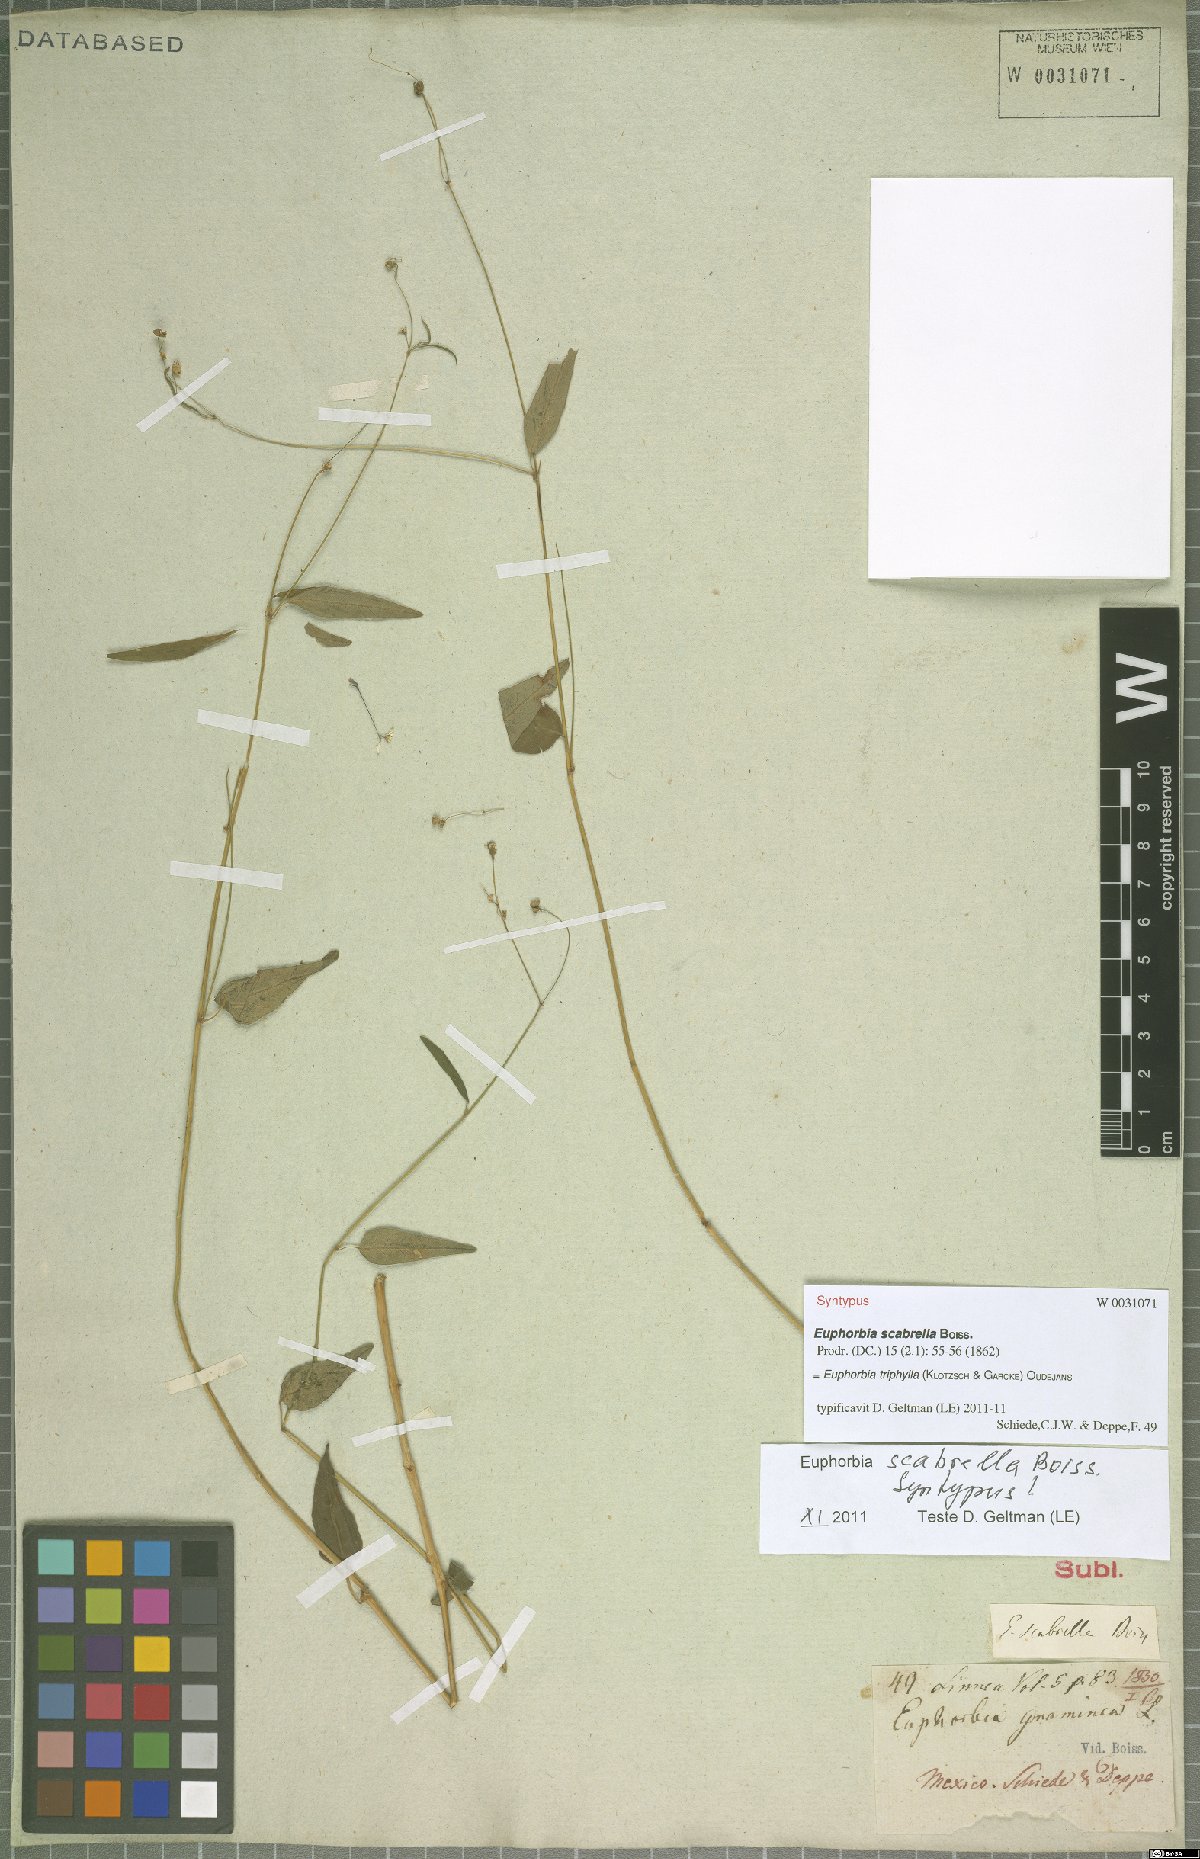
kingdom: Plantae
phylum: Tracheophyta
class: Magnoliopsida
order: Malpighiales
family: Euphorbiaceae
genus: Euphorbia
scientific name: Euphorbia triphylla
